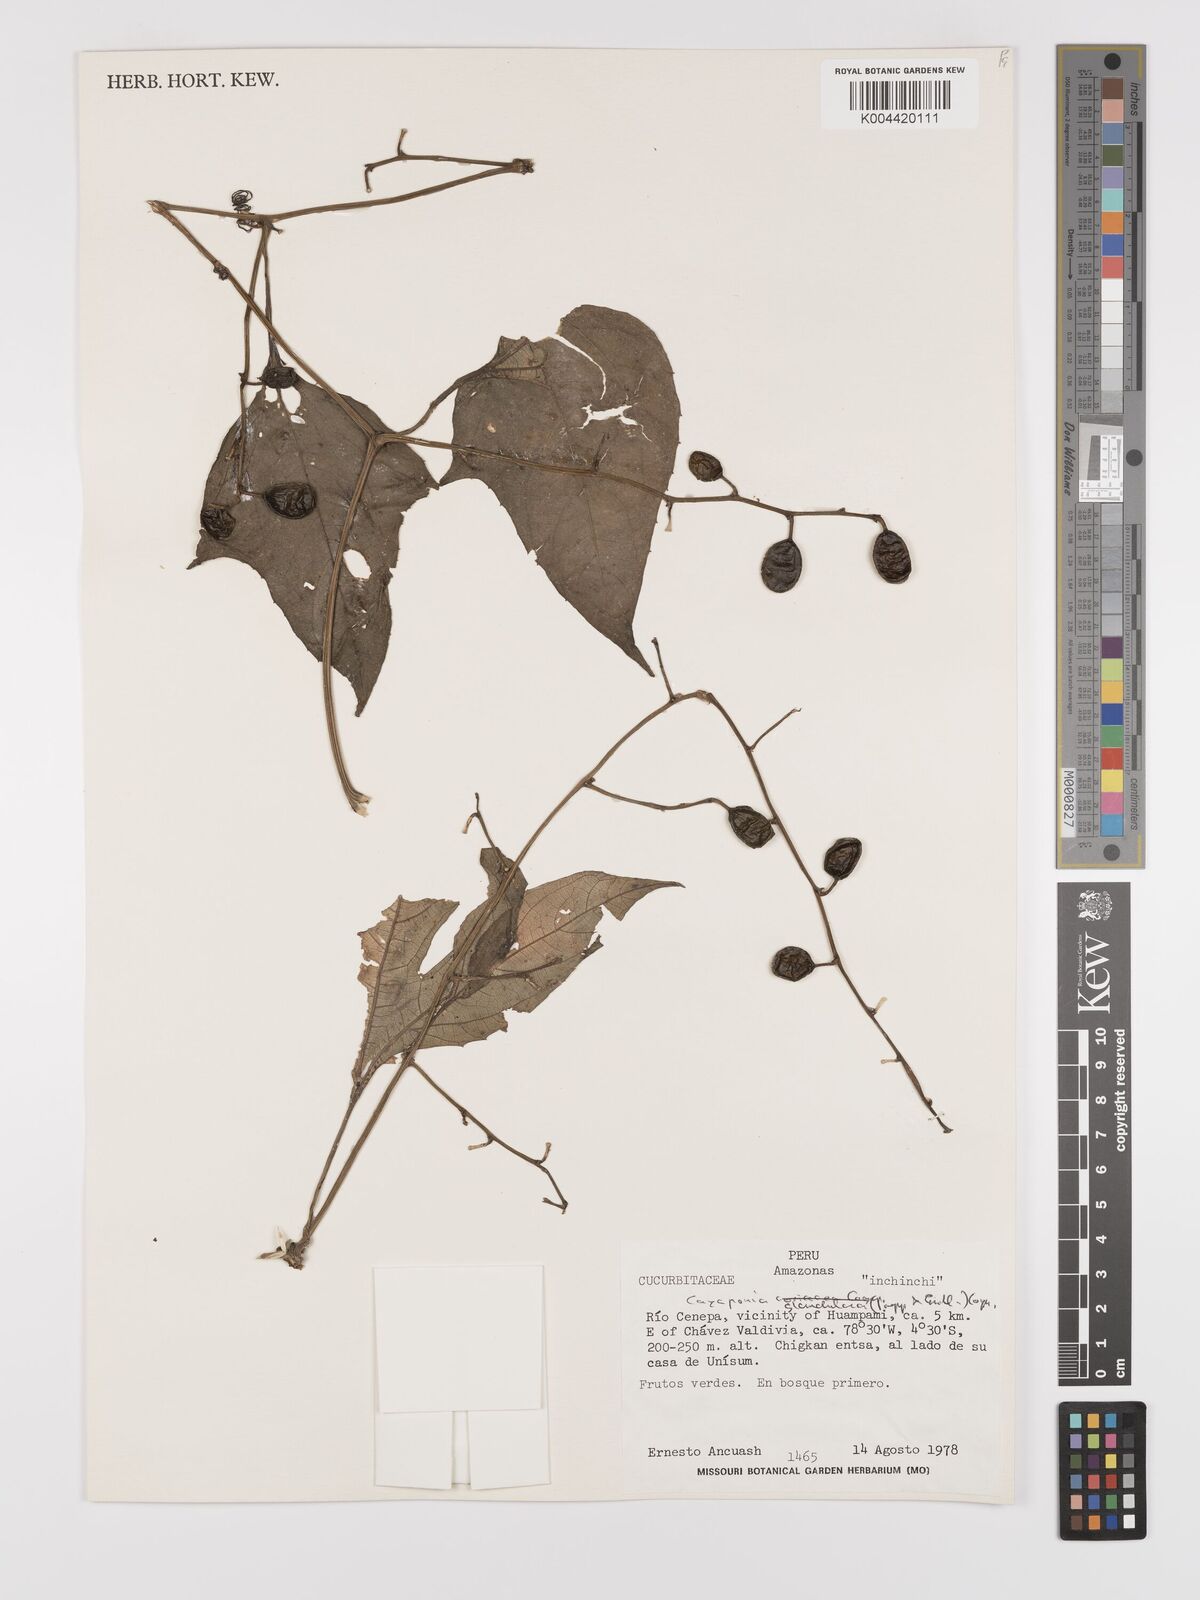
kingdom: Plantae
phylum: Tracheophyta
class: Magnoliopsida
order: Cucurbitales
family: Cucurbitaceae
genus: Cayaponia
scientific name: Cayaponia glandulosa
